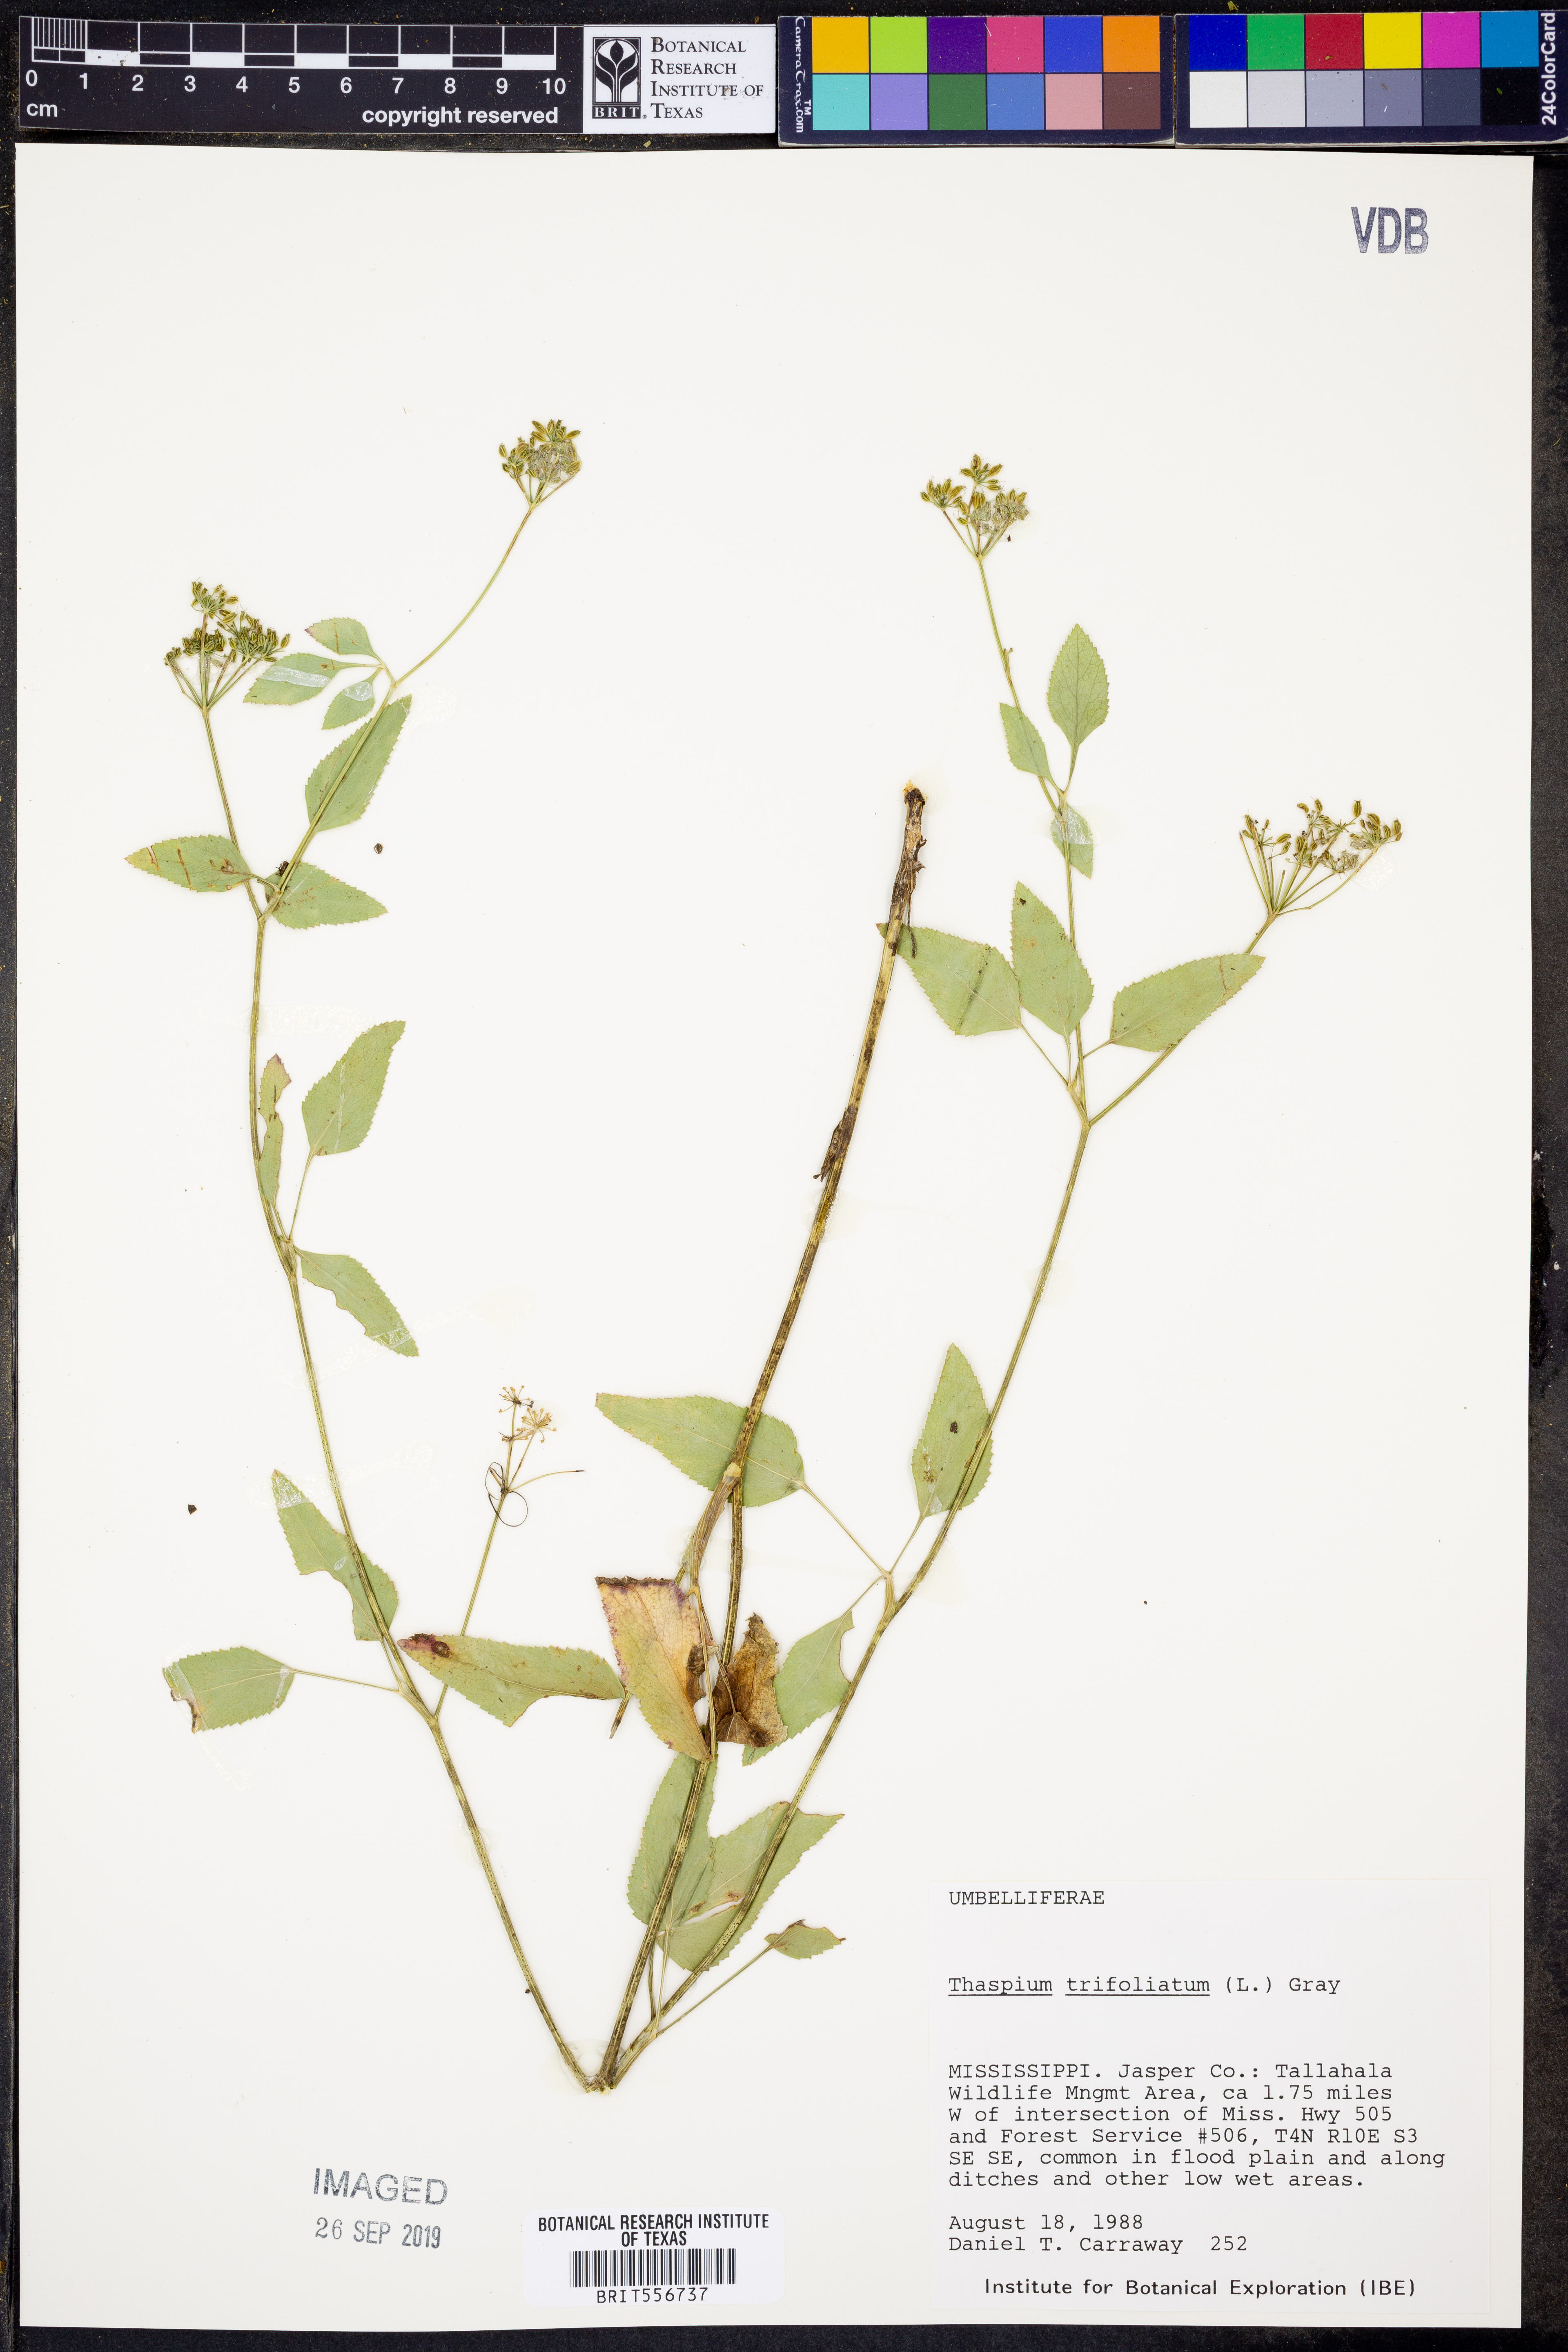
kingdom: Plantae
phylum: Tracheophyta
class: Magnoliopsida
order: Apiales
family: Apiaceae
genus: Thaspium
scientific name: Thaspium trifoliatum
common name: Purple meadow-parsnip
